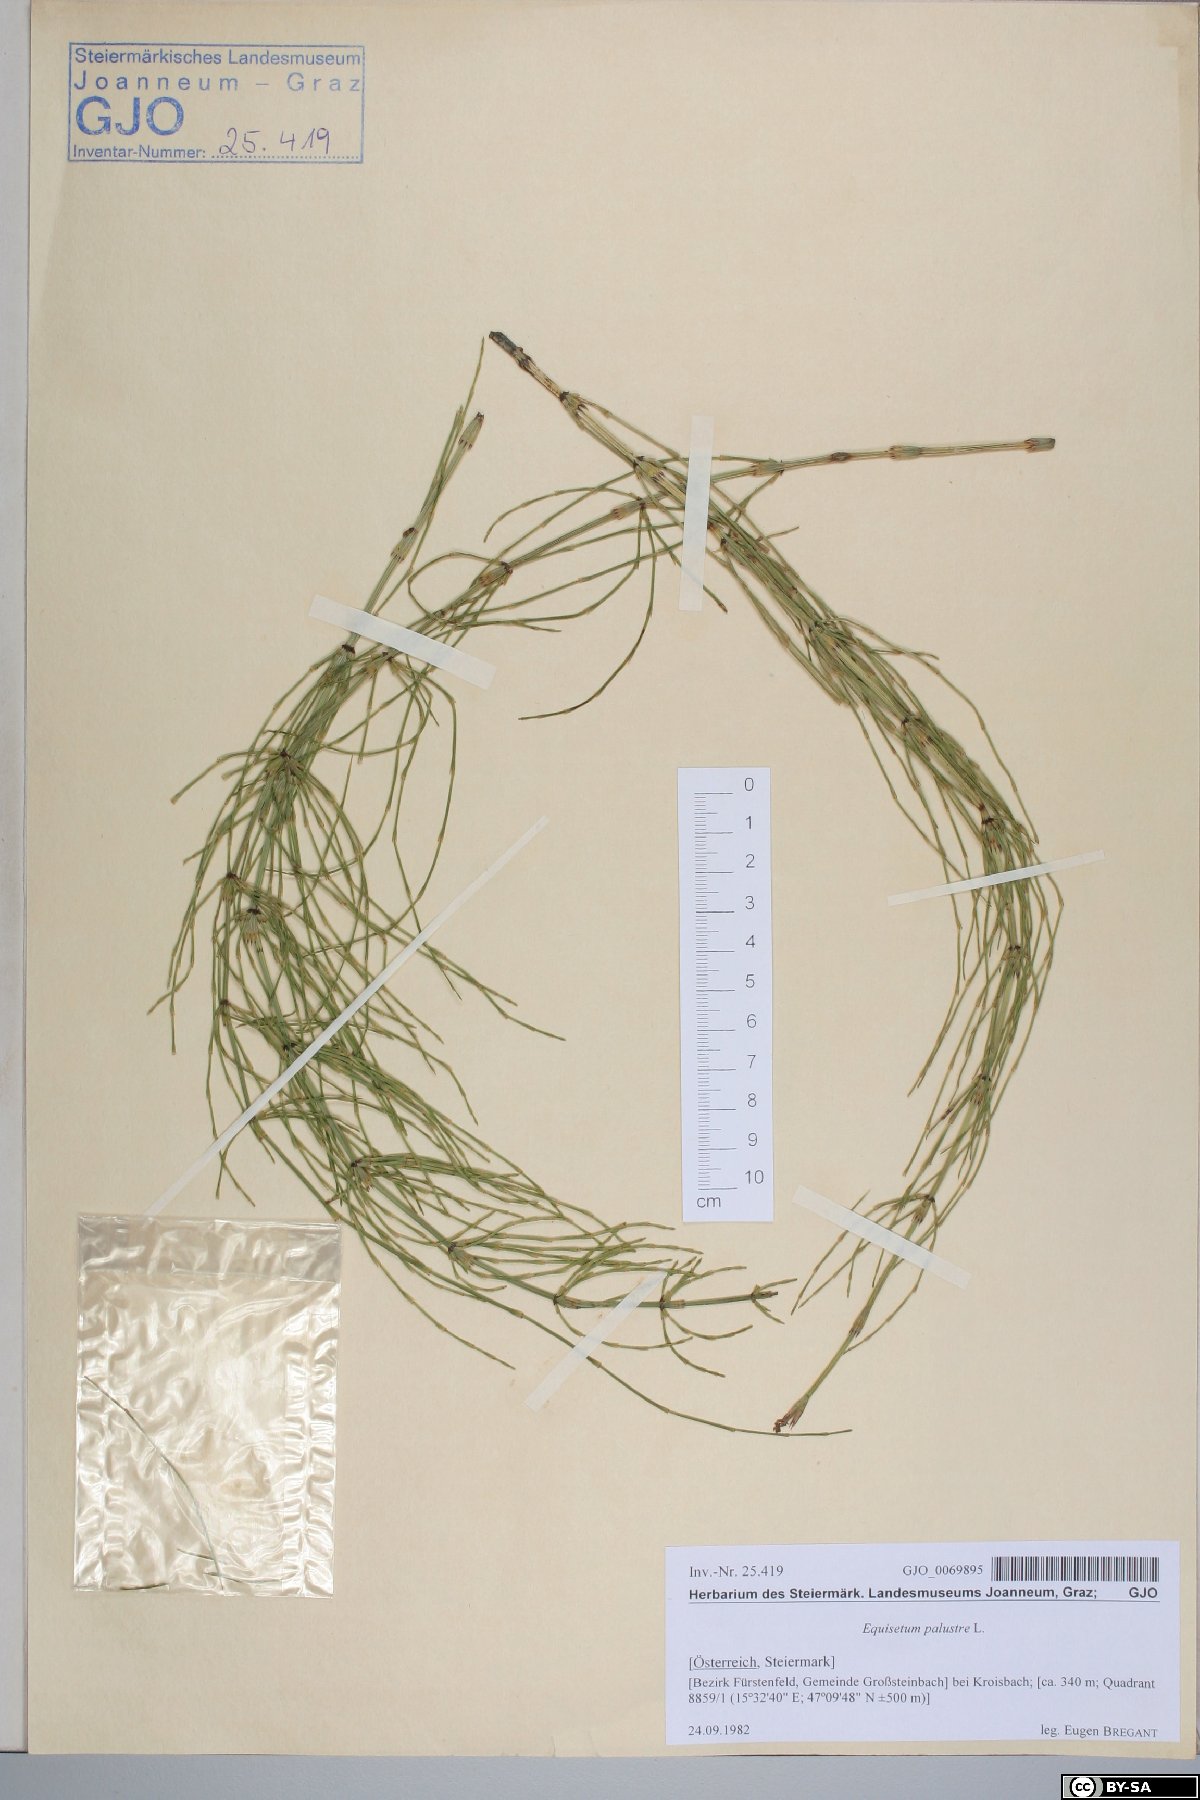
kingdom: Plantae
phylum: Tracheophyta
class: Polypodiopsida
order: Equisetales
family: Equisetaceae
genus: Equisetum
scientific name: Equisetum palustre
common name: Marsh horsetail
